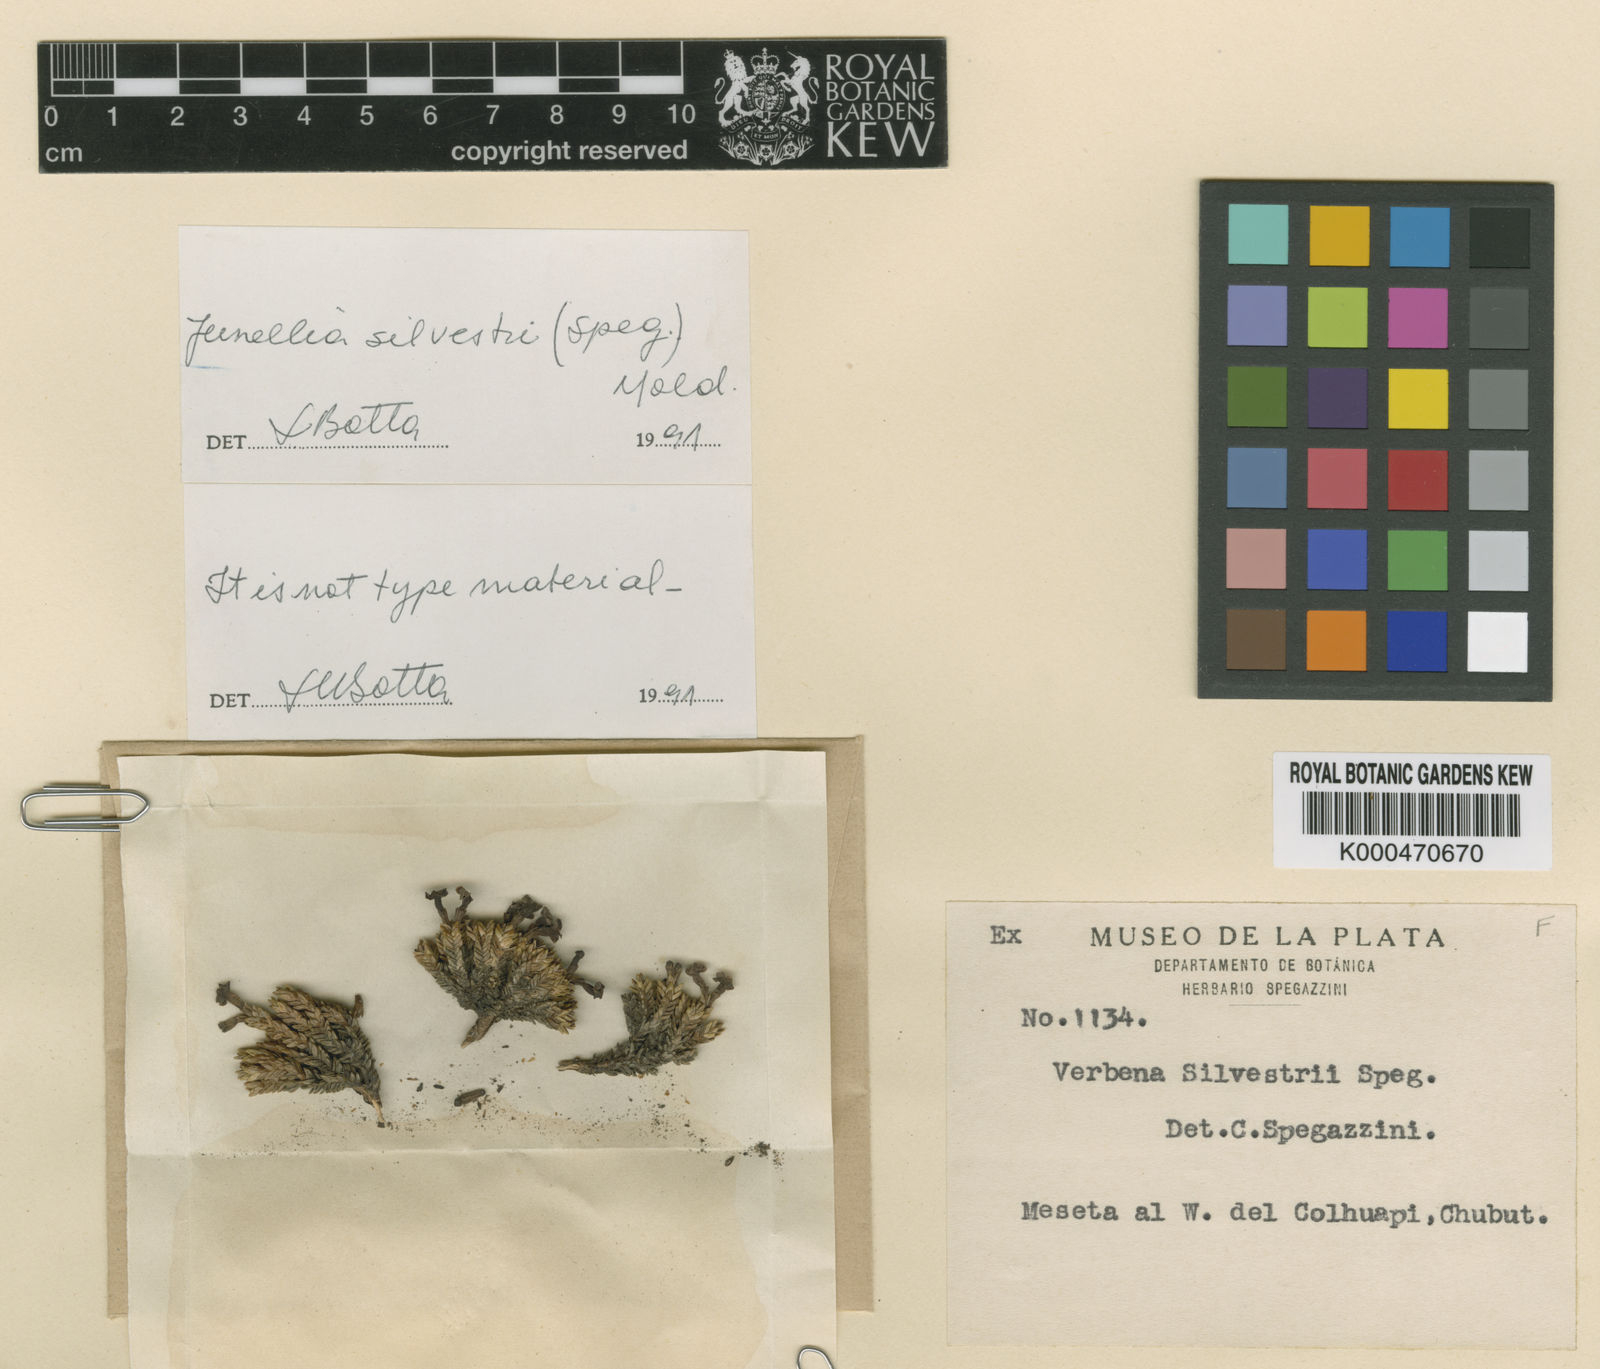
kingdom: Plantae
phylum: Tracheophyta
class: Magnoliopsida
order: Lamiales
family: Verbenaceae
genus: Junellia
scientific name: Junellia silvestrii
